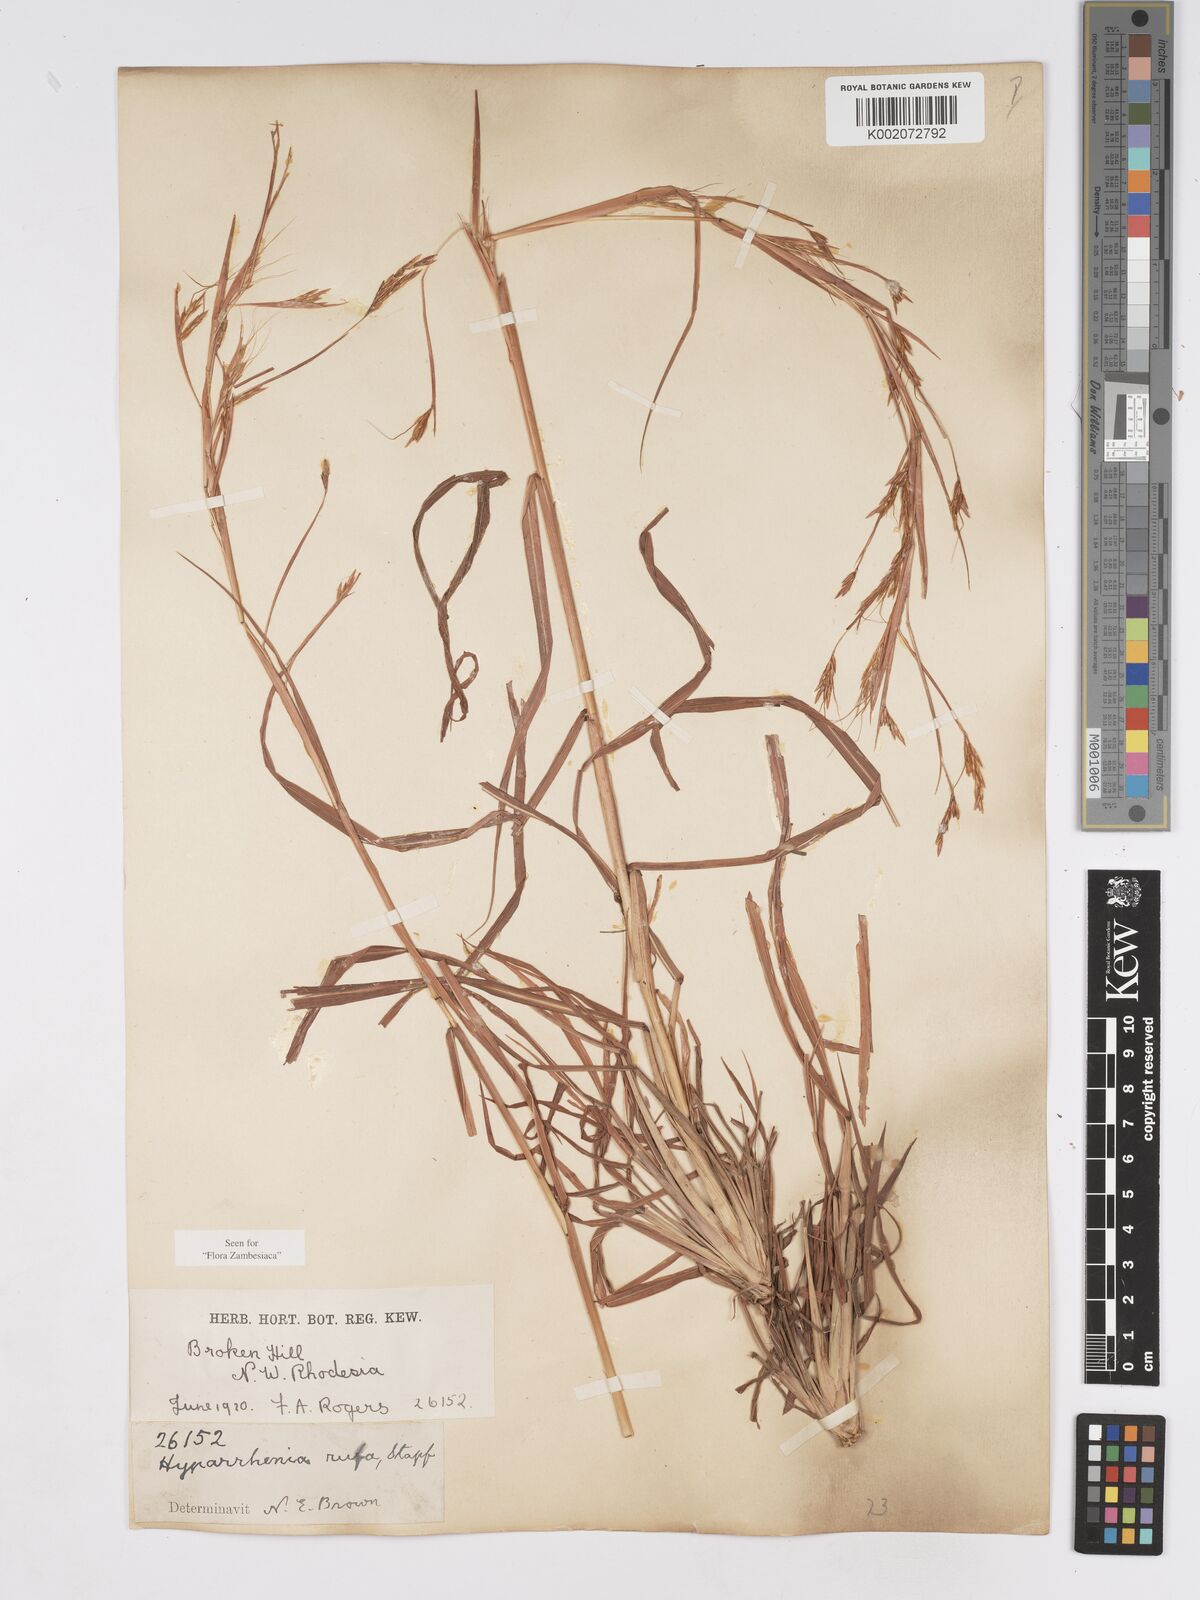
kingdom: Plantae
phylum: Tracheophyta
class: Liliopsida
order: Poales
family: Poaceae
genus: Hyparrhenia
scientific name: Hyparrhenia rufa
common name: Jaraguagrass
